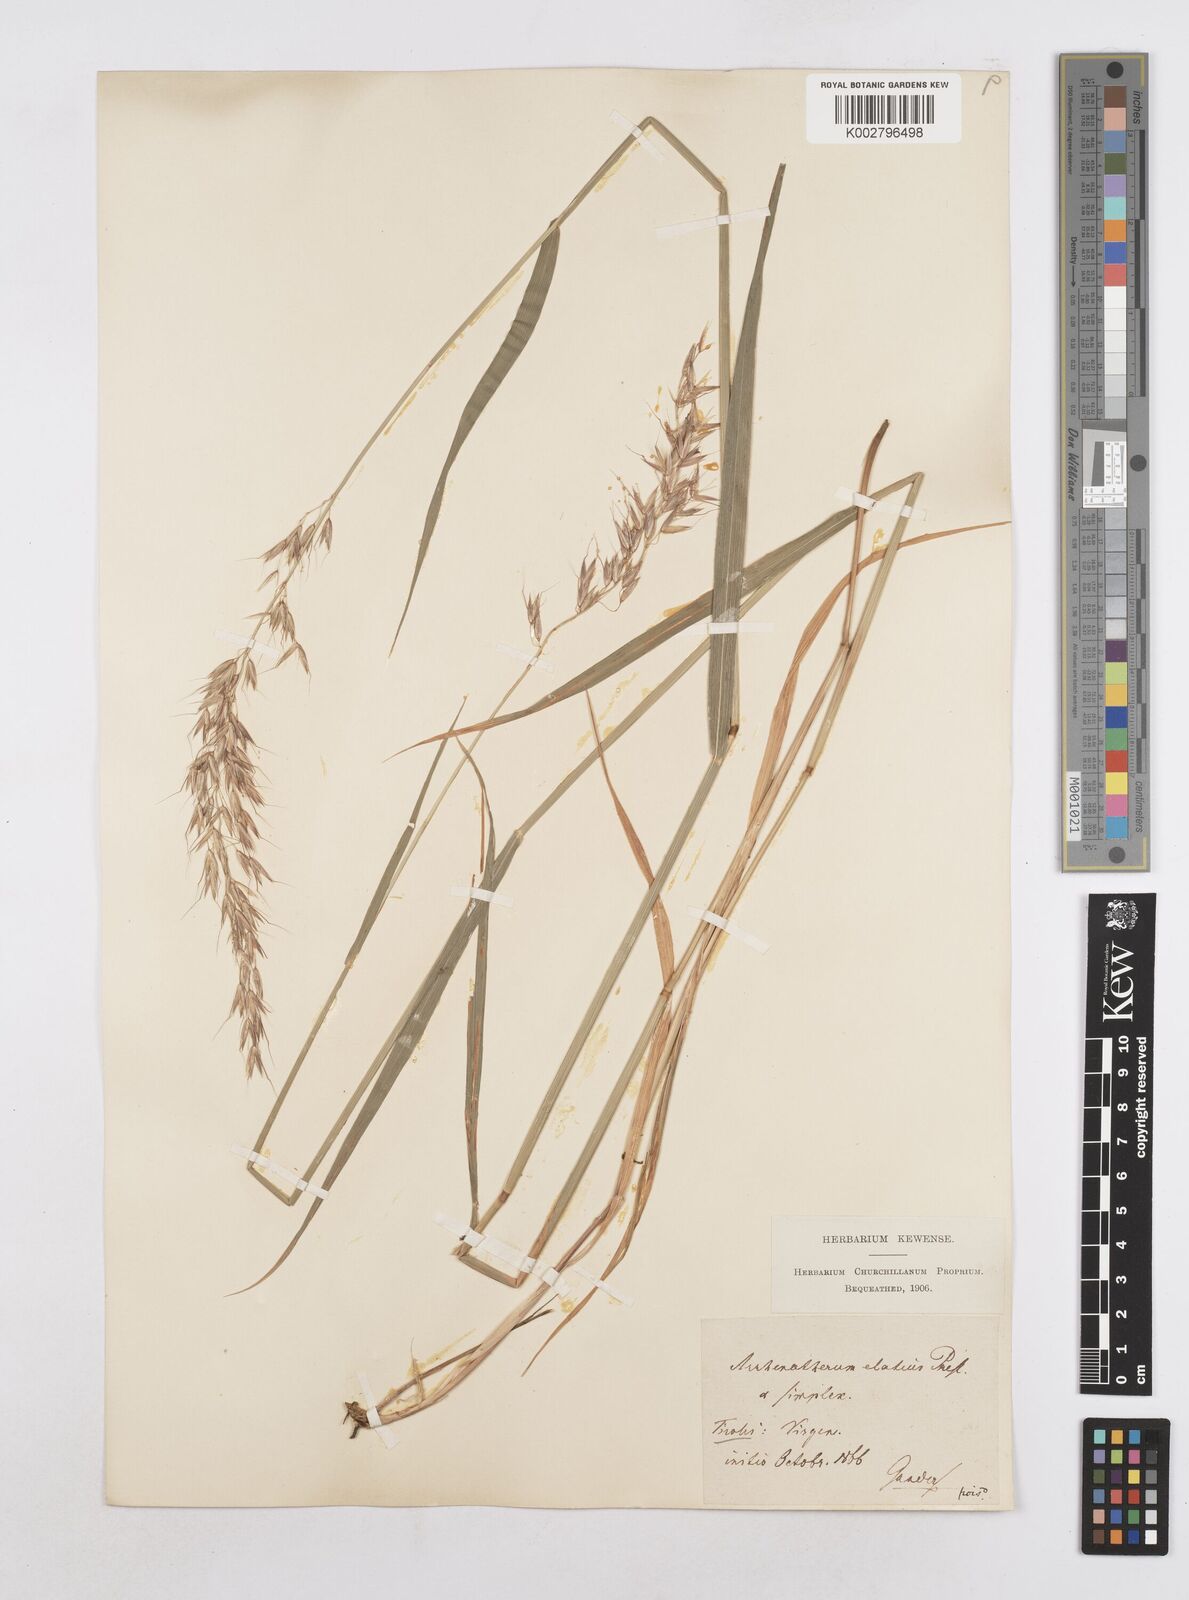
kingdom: Plantae
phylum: Tracheophyta
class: Liliopsida
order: Poales
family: Poaceae
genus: Arrhenatherum
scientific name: Arrhenatherum elatius
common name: Tall oatgrass
